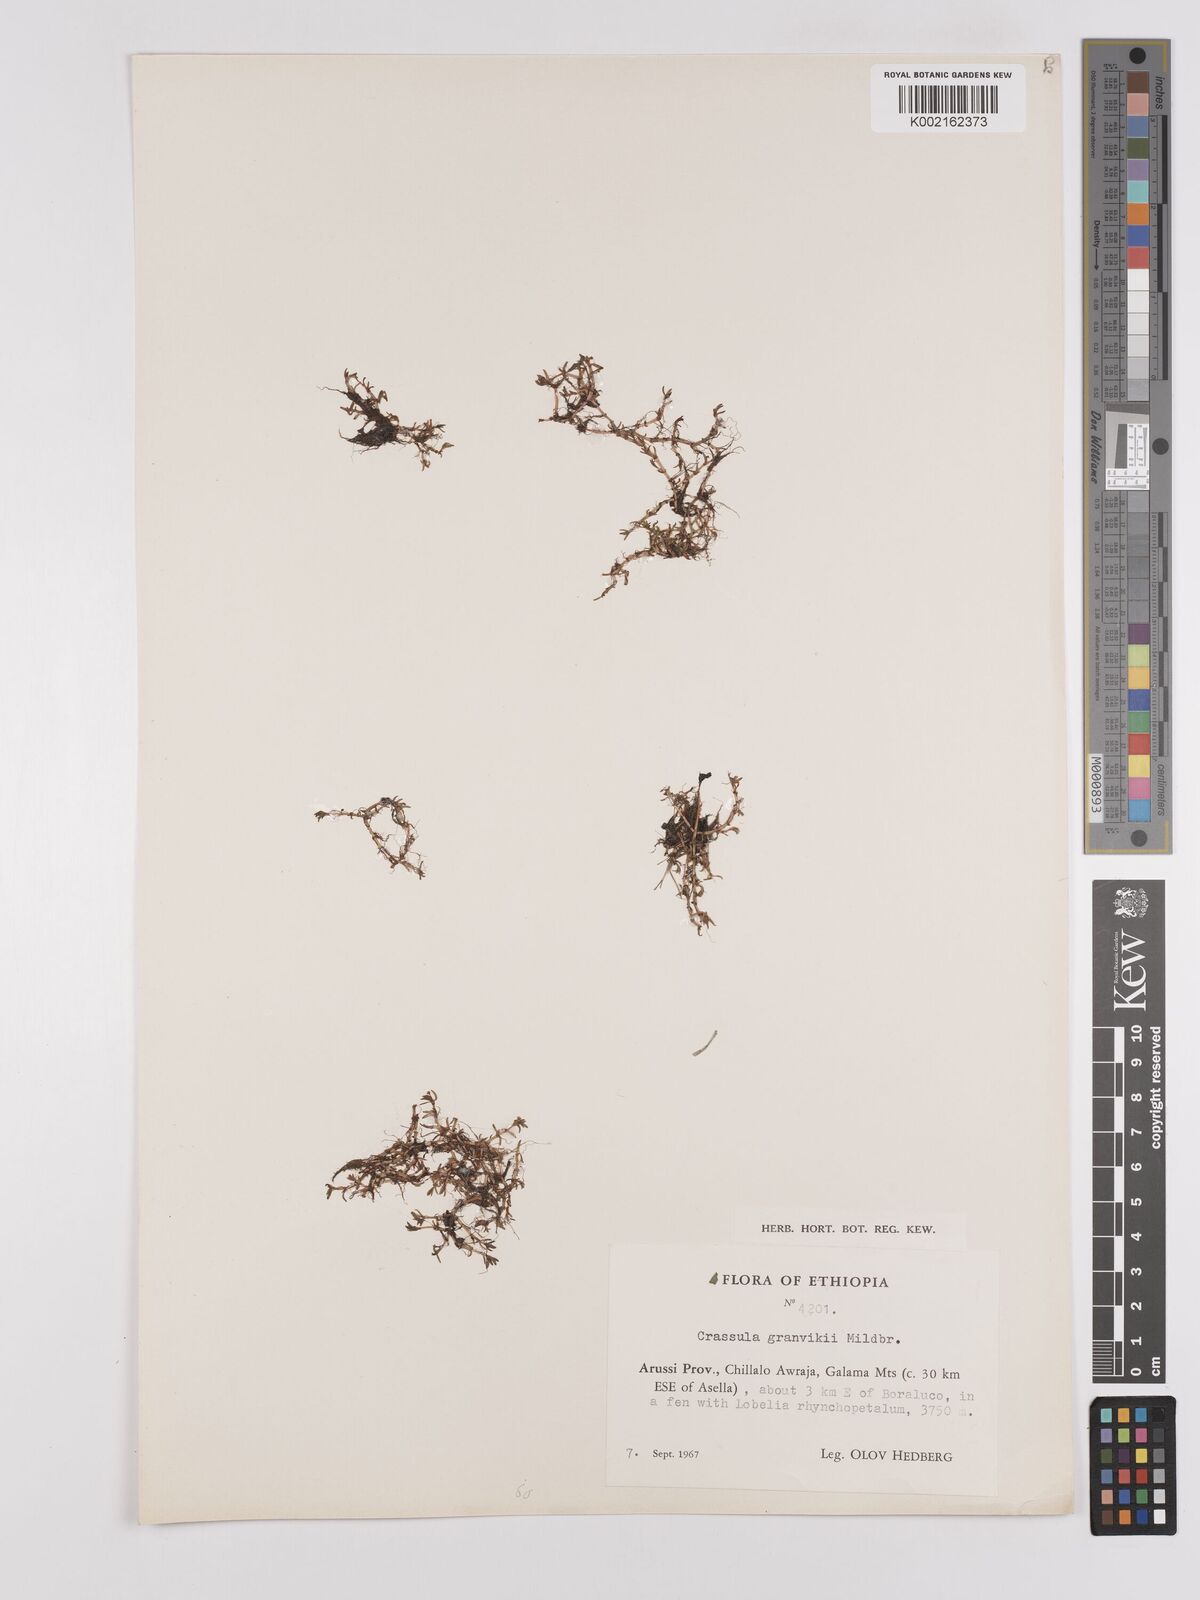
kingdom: Plantae
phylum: Tracheophyta
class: Magnoliopsida
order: Saxifragales
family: Crassulaceae
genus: Crassula
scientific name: Crassula granvikii
